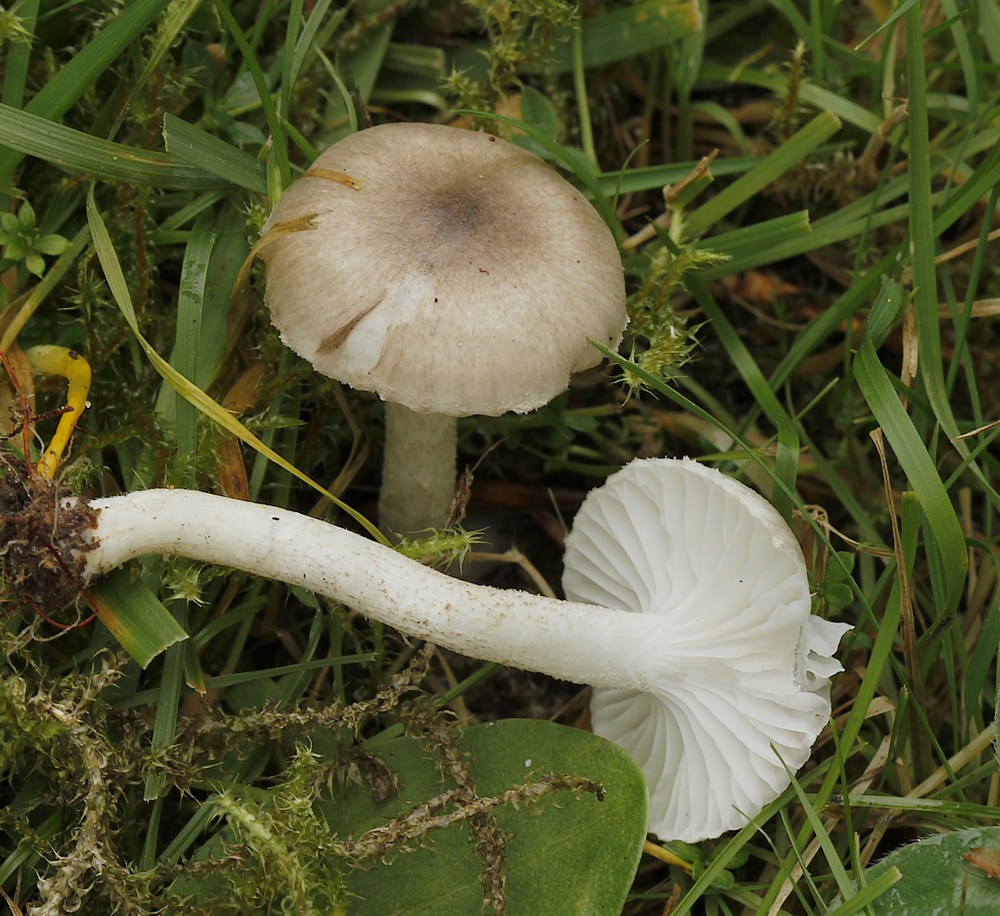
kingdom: Fungi
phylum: Basidiomycota
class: Agaricomycetes
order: Agaricales
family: Hygrophoraceae
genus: Hygrophorus
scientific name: Hygrophorus pustulatus
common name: mørkprikket sneglehat
